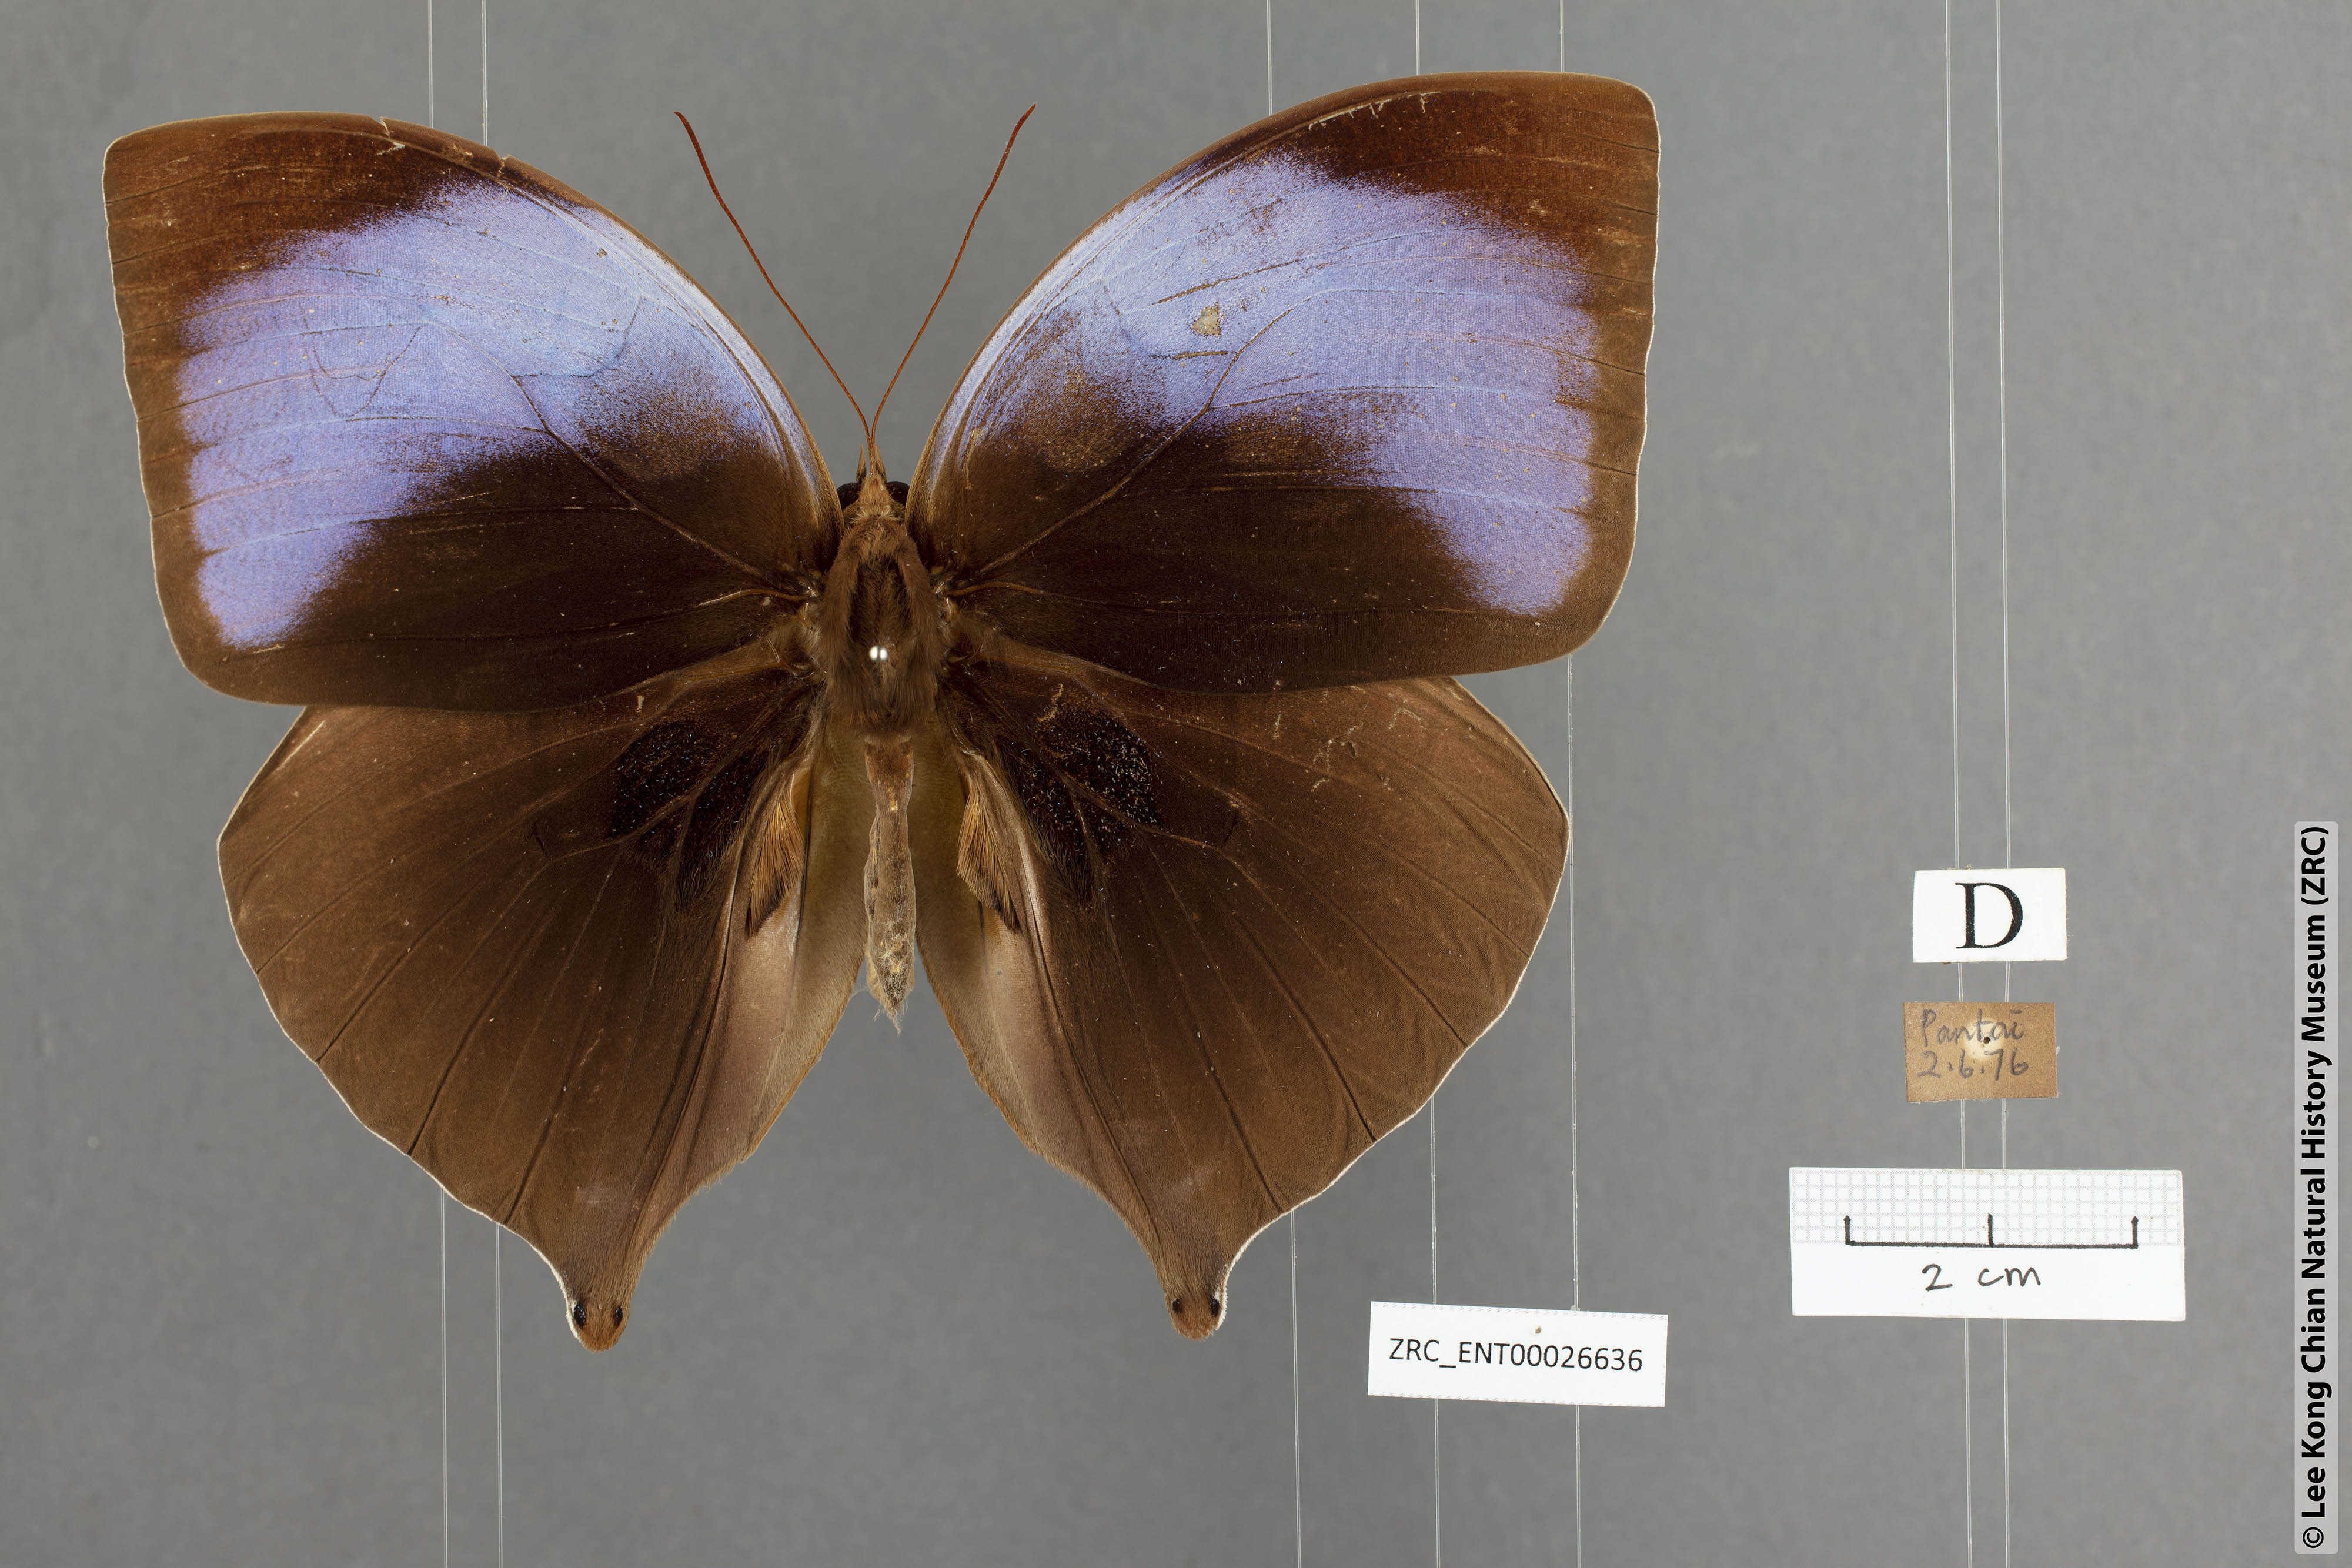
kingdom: Animalia
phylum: Arthropoda
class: Insecta
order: Lepidoptera
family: Nymphalidae
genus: Amathuxidia
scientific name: Amathuxidia amythaon
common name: Koh-i-noor
